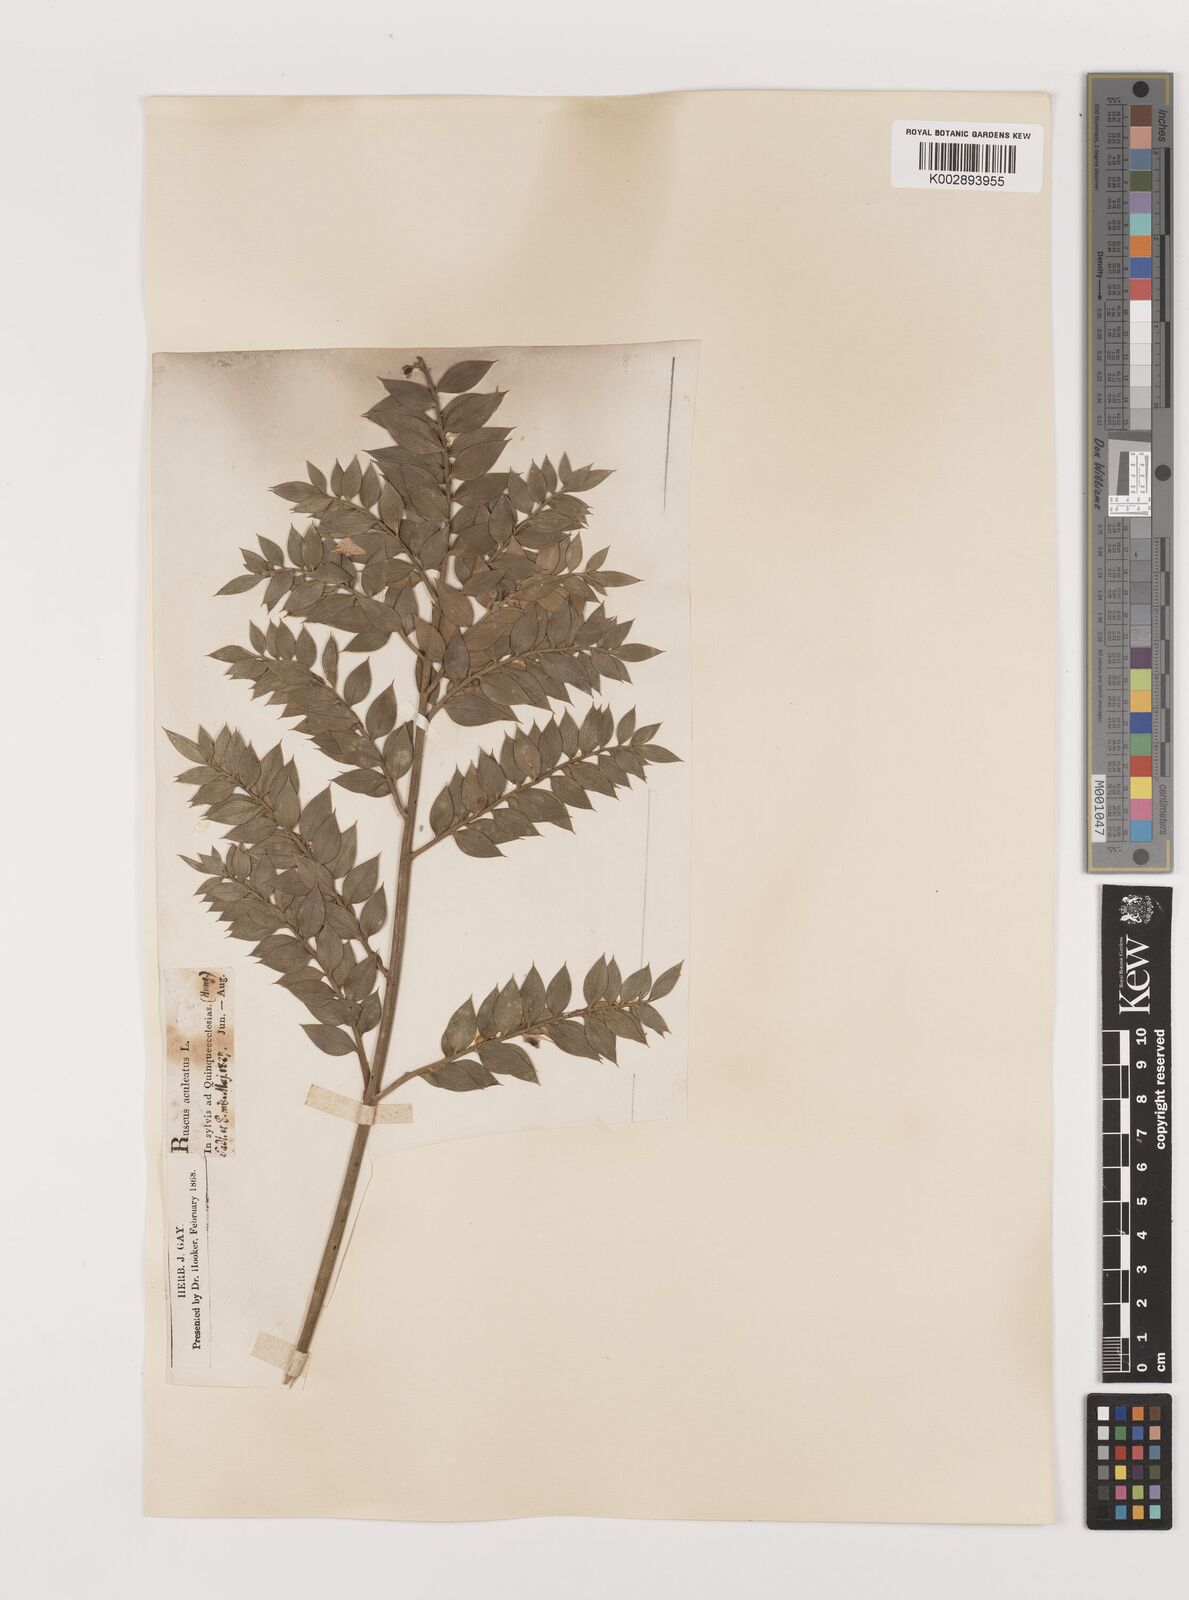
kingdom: Plantae
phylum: Tracheophyta
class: Liliopsida
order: Asparagales
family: Asparagaceae
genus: Ruscus
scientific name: Ruscus aculeatus
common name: Butcher's-broom
